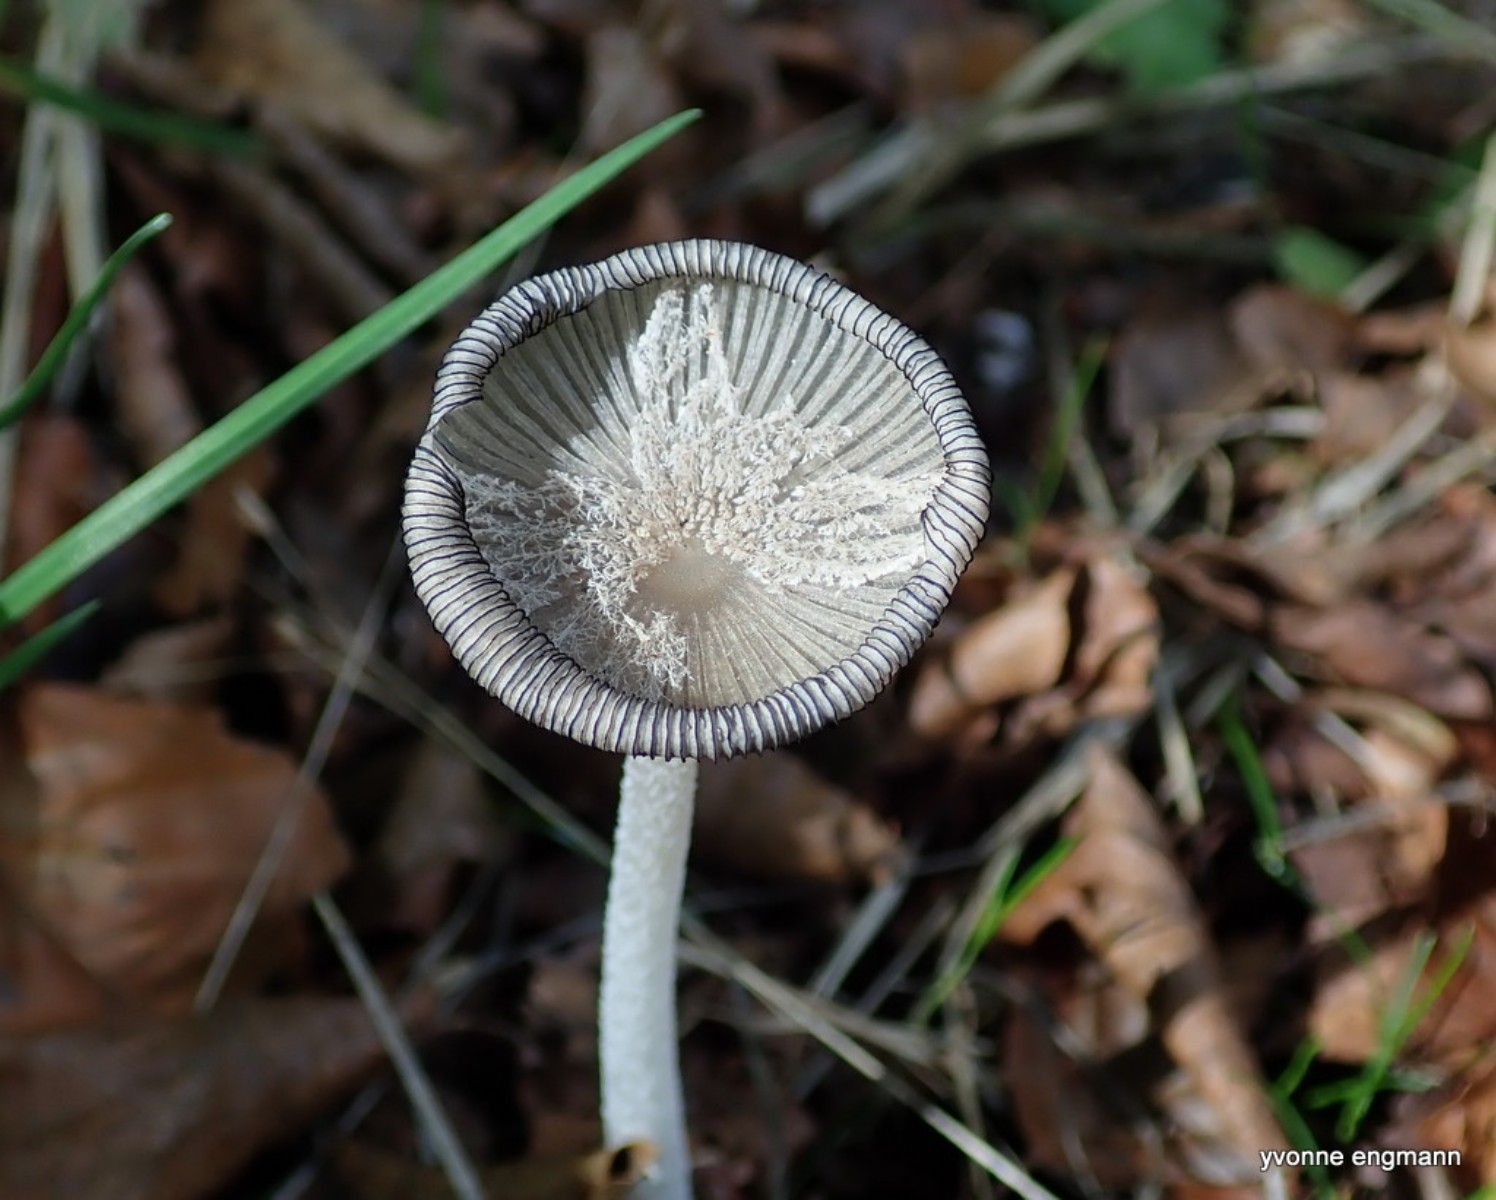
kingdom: Fungi
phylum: Basidiomycota
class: Agaricomycetes
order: Agaricales
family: Psathyrellaceae
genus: Coprinopsis
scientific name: Coprinopsis lagopus
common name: dunstokket blækhat
